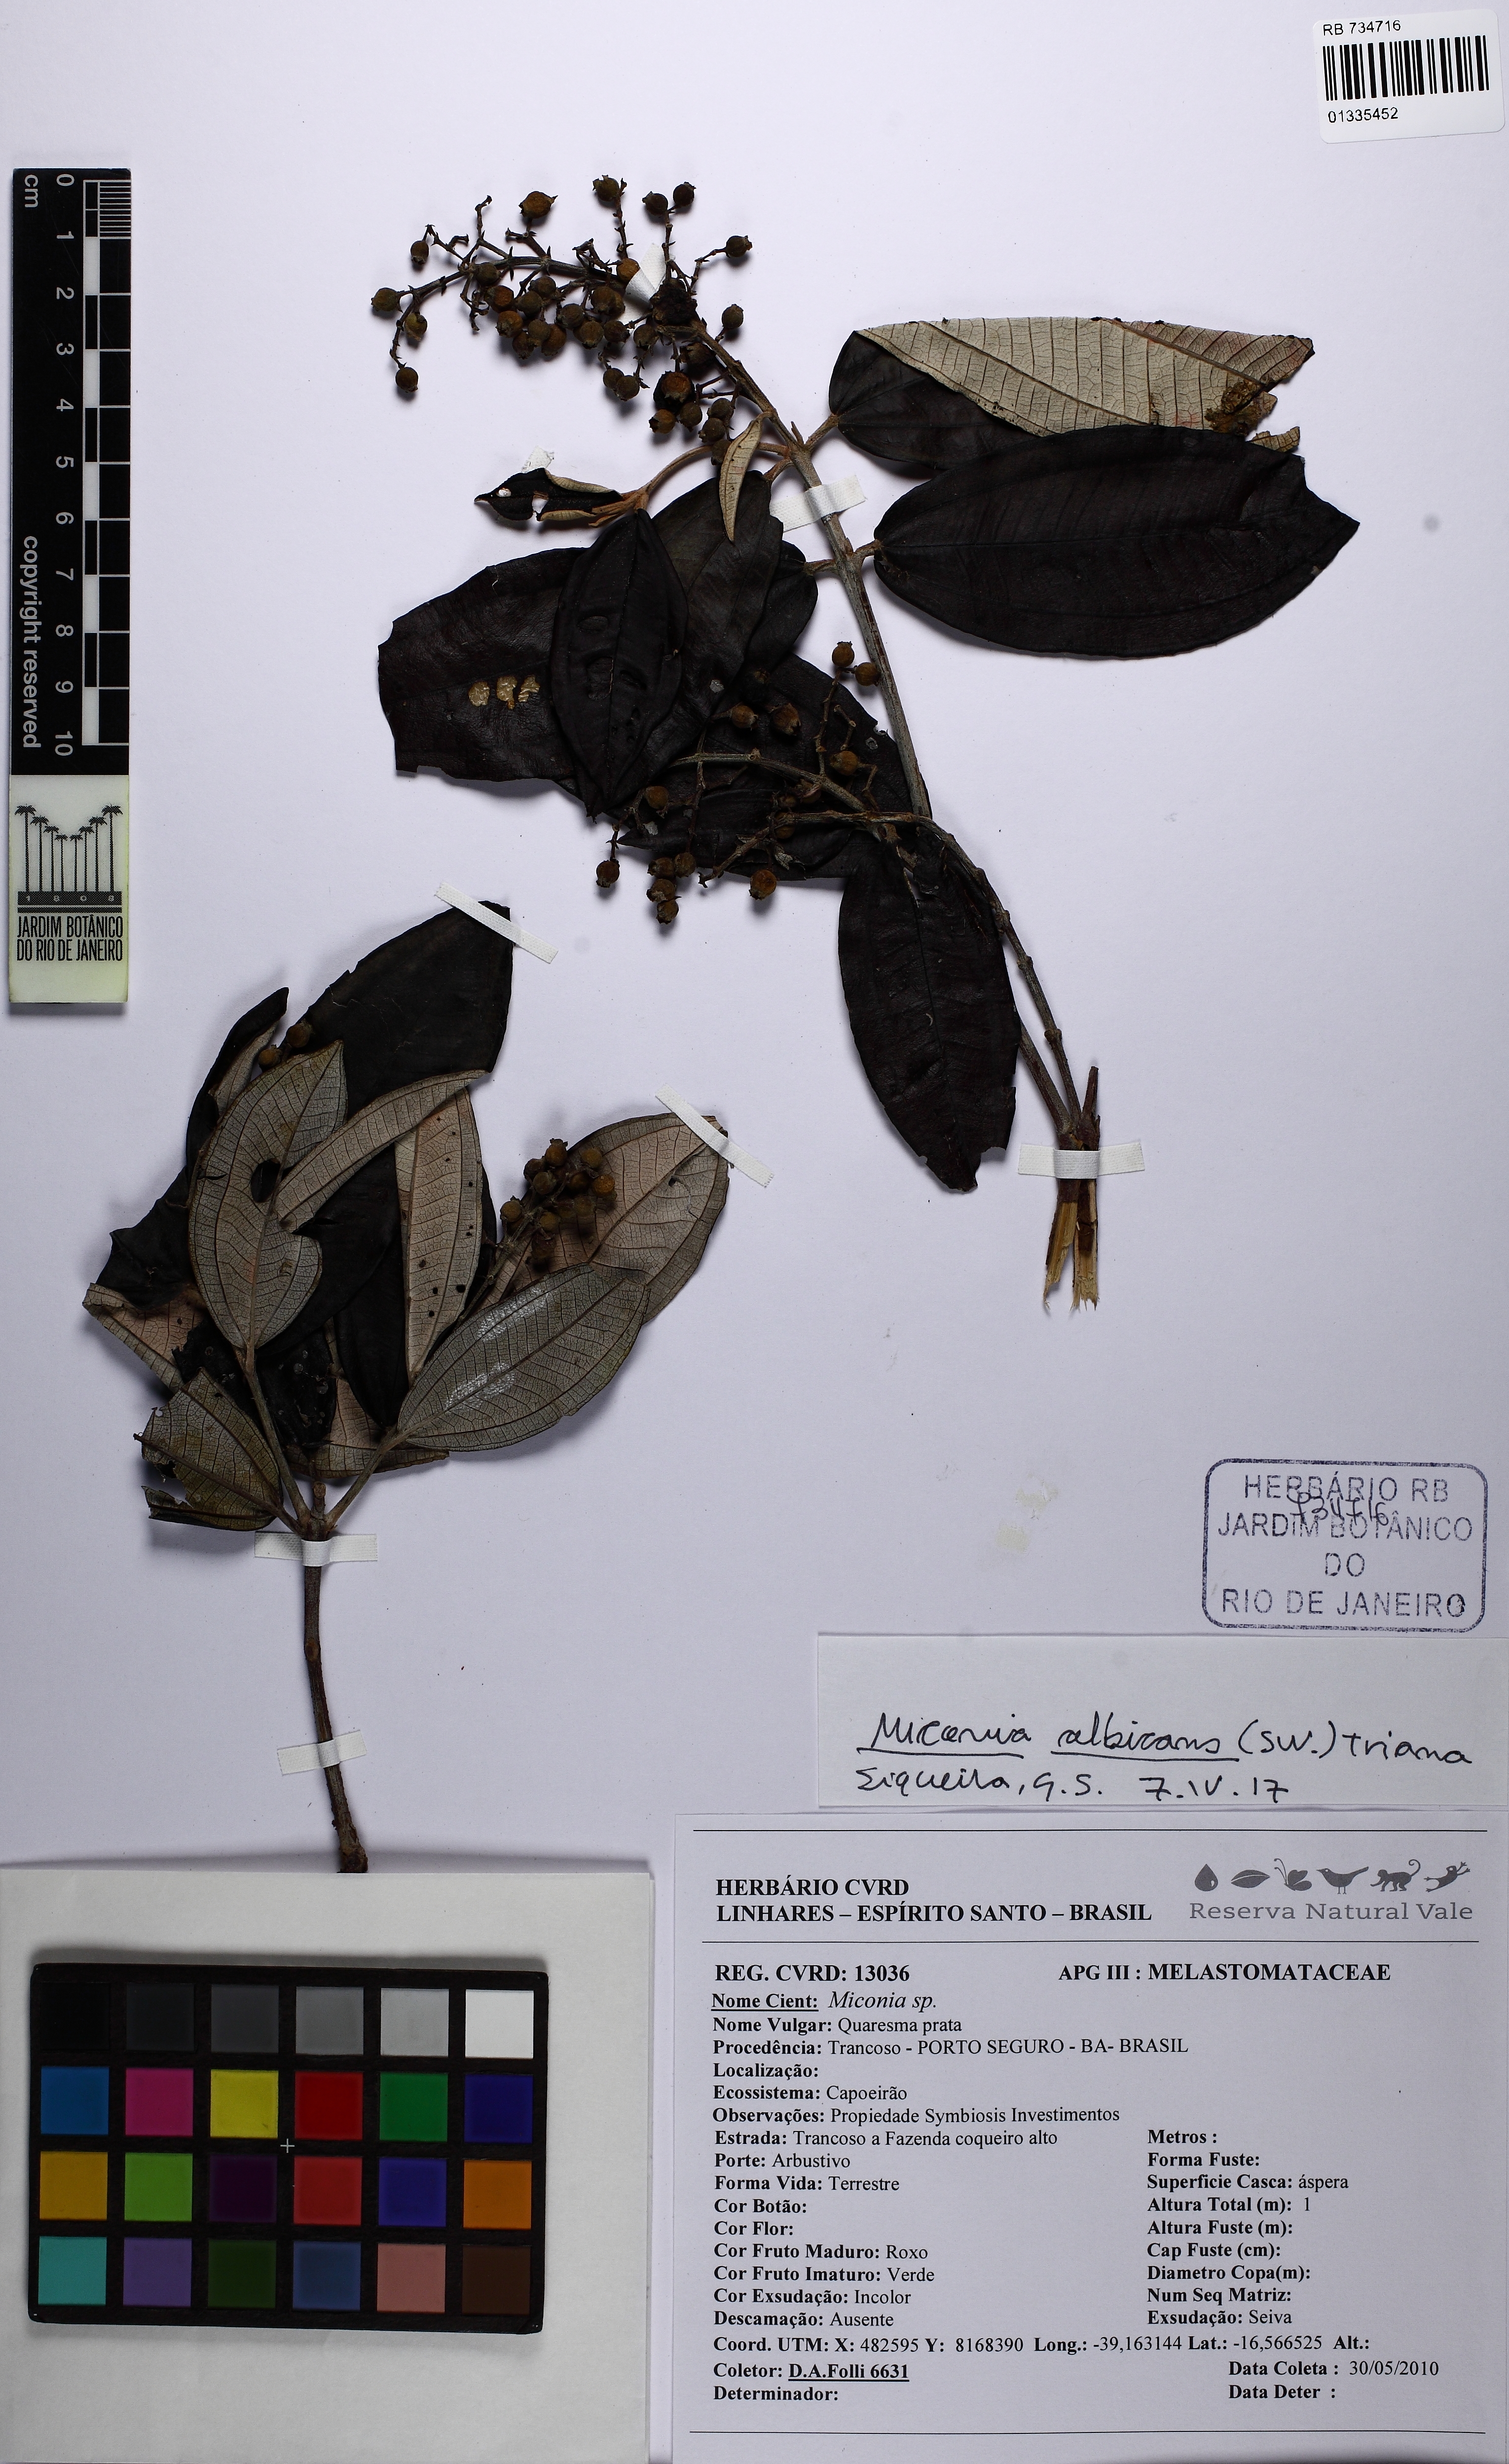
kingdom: Plantae
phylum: Tracheophyta
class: Magnoliopsida
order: Myrtales
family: Melastomataceae
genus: Miconia
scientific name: Miconia albicans
